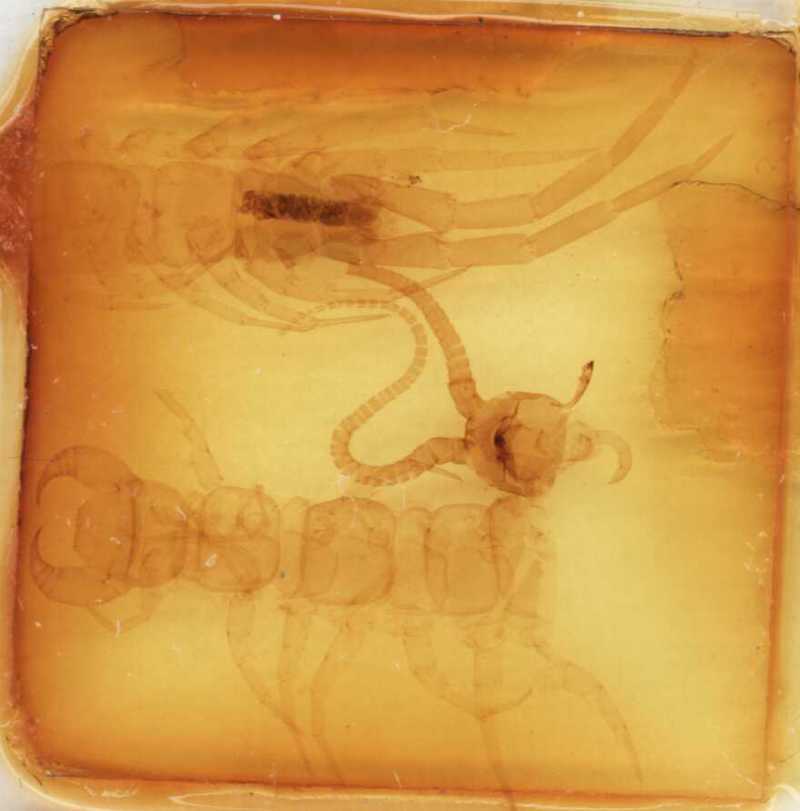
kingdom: Animalia
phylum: Arthropoda
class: Chilopoda
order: Lithobiomorpha
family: Lithobiidae
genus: Polybothrus
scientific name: Polybothrus
